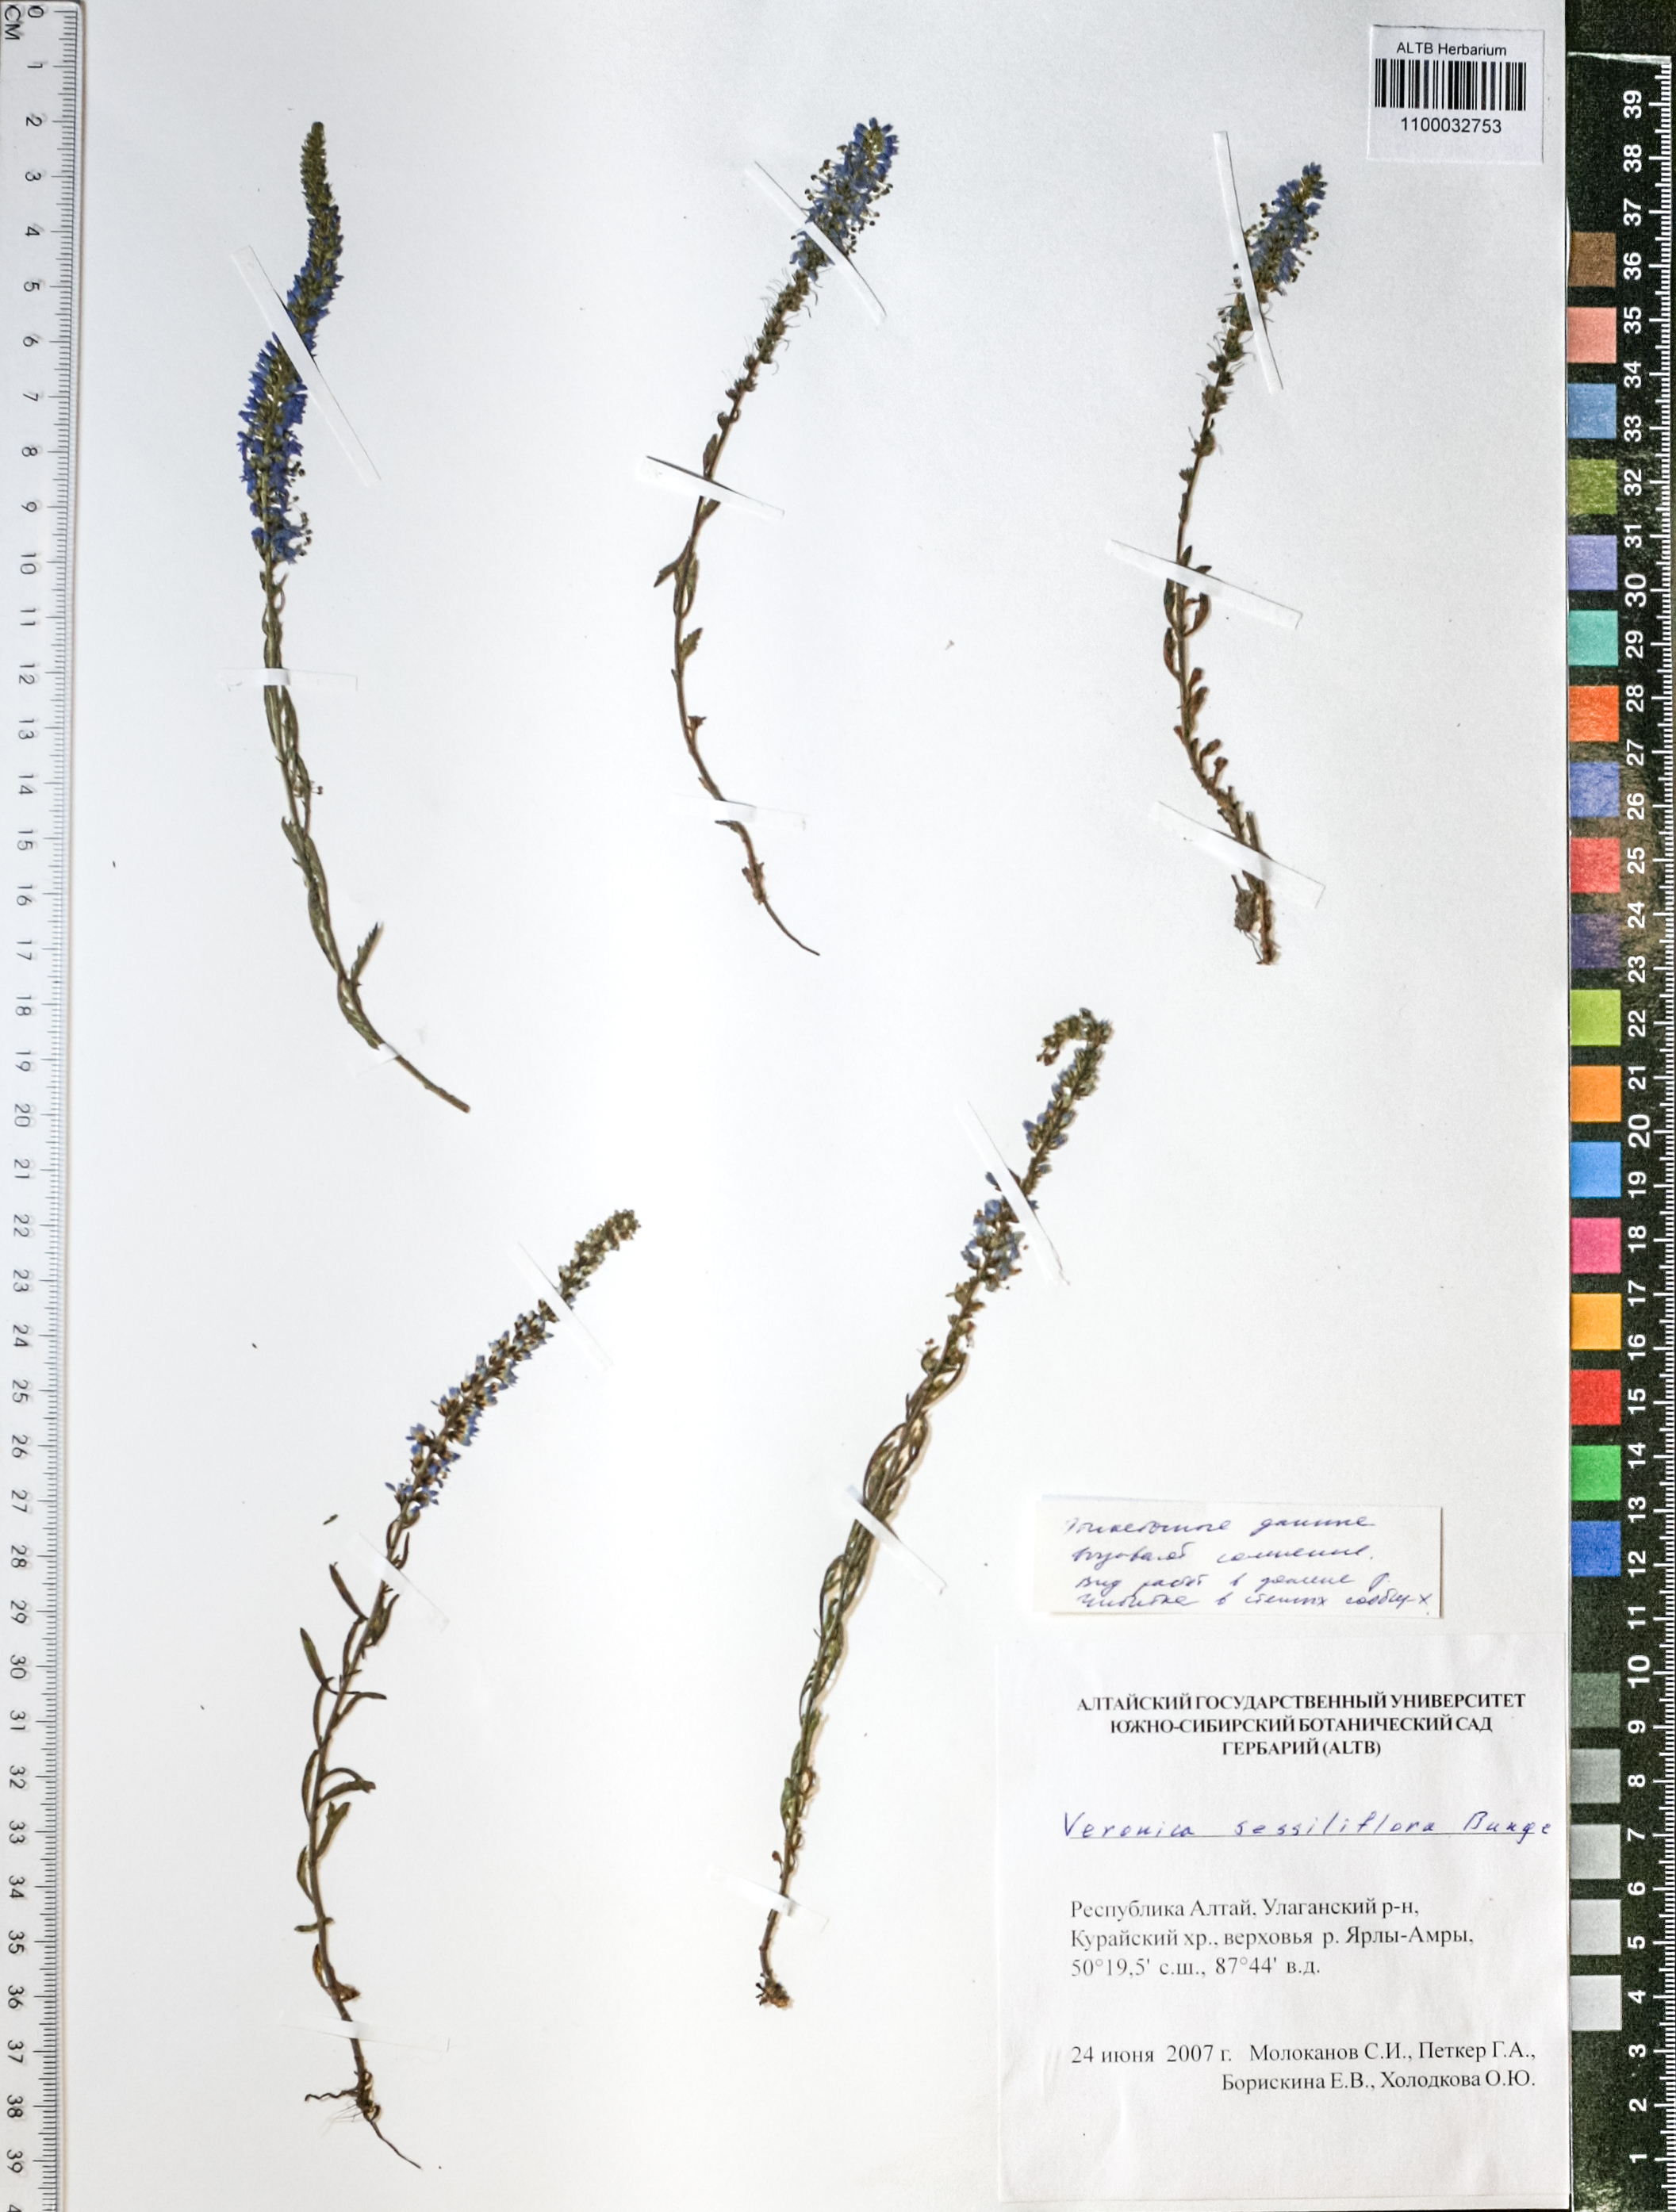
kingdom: Plantae
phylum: Tracheophyta
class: Magnoliopsida
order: Lamiales
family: Plantaginaceae
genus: Veronica
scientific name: Veronica sessiliflora
